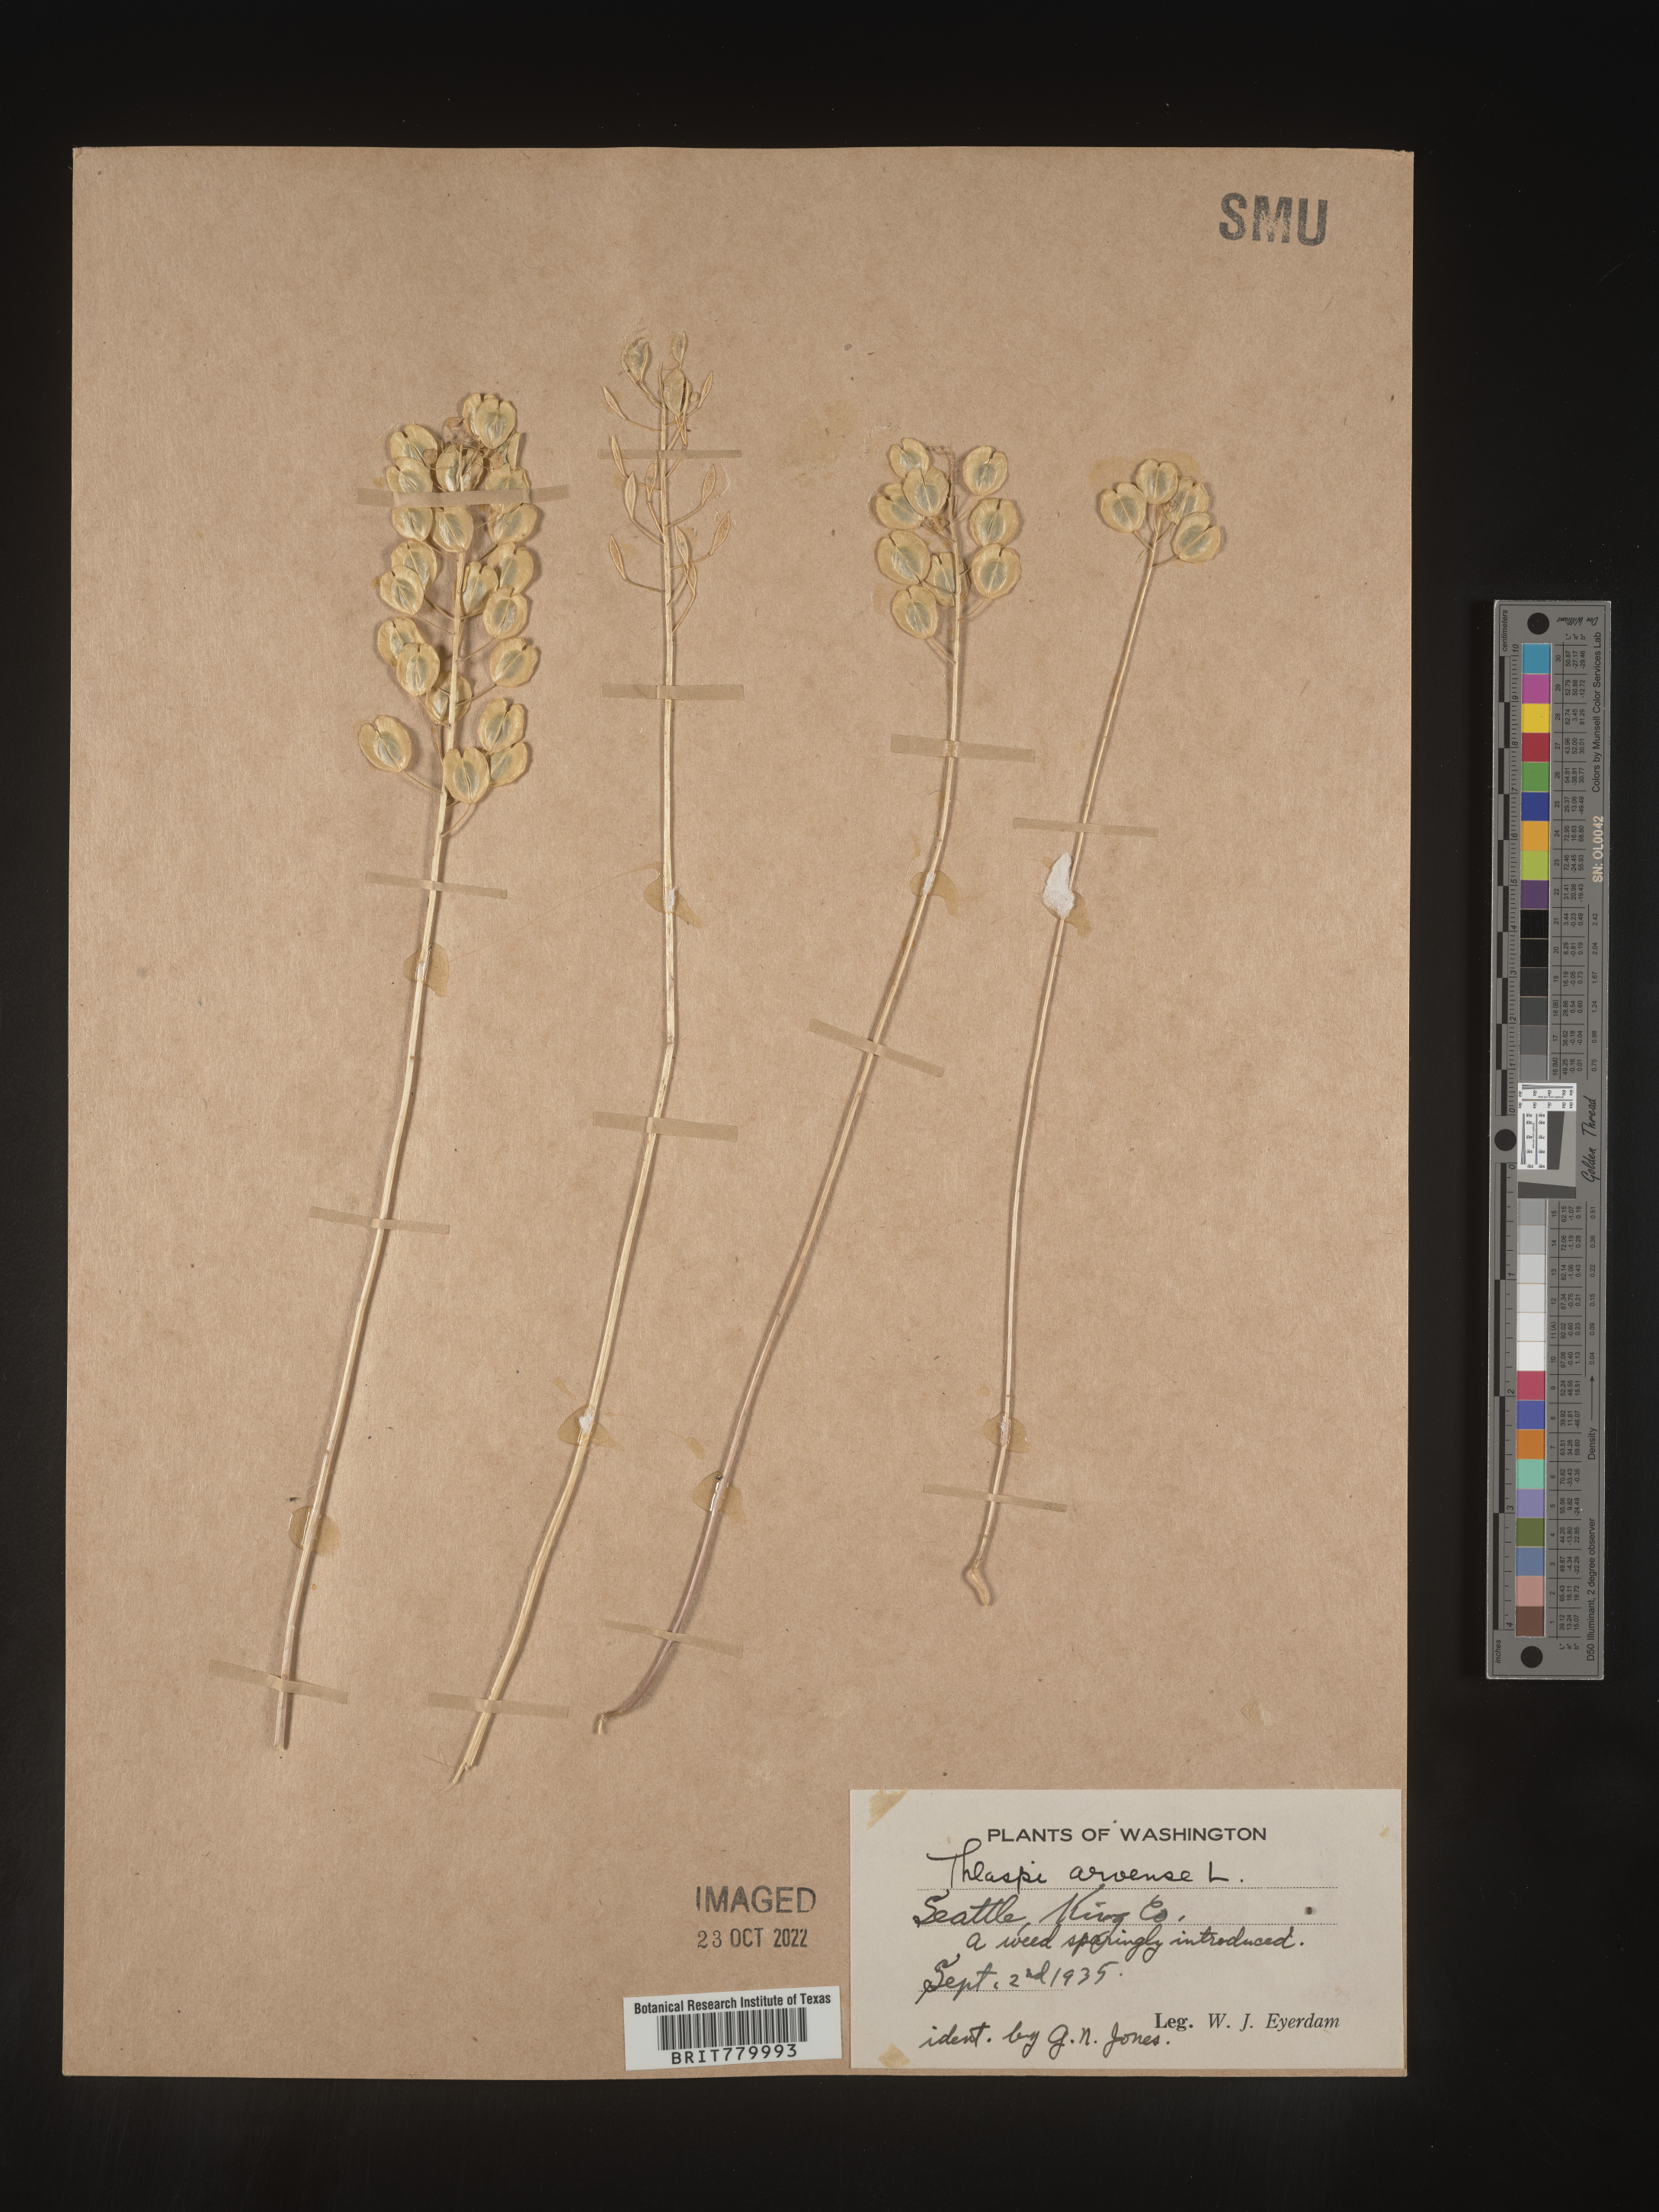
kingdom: Plantae
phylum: Tracheophyta
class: Magnoliopsida
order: Brassicales
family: Brassicaceae
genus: Thlaspi
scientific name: Thlaspi arvense
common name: Field pennycress
